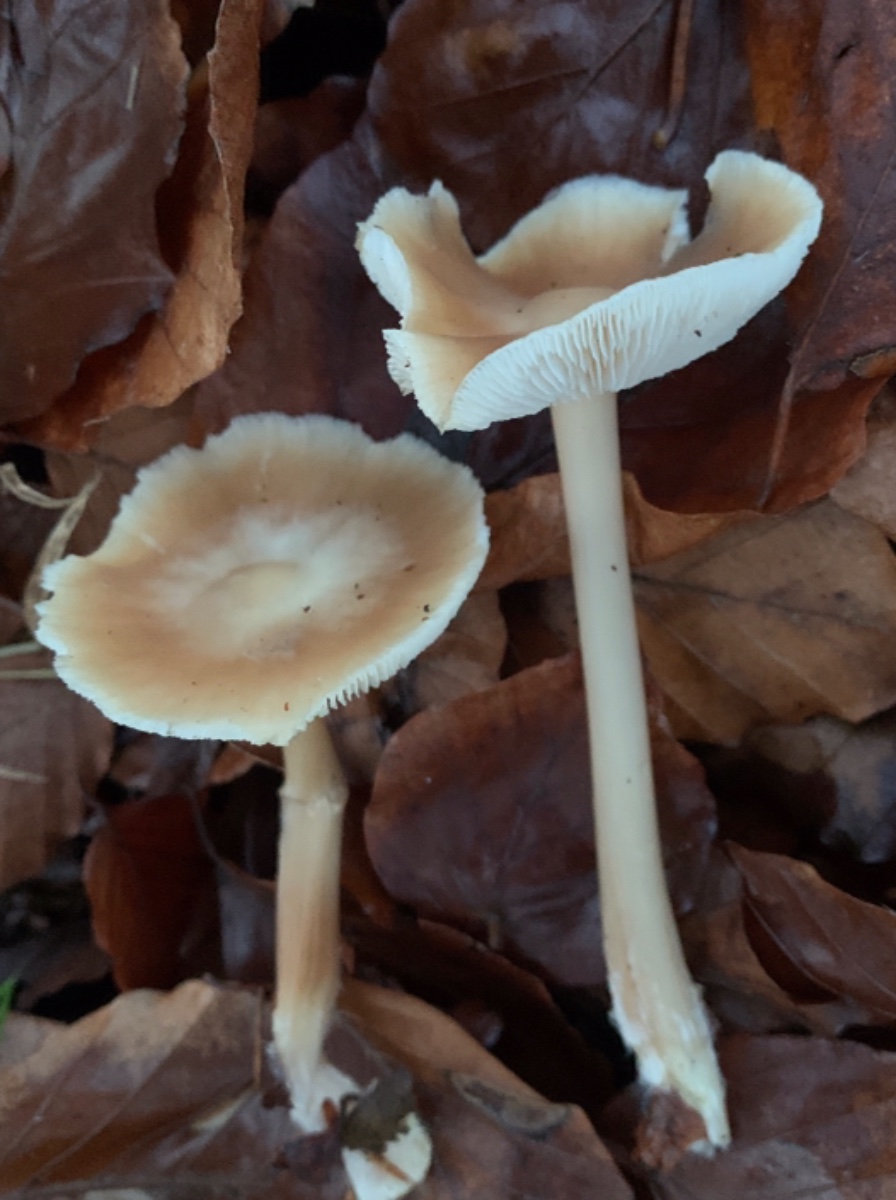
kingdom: Fungi
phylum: Basidiomycota
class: Agaricomycetes
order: Agaricales
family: Omphalotaceae
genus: Rhodocollybia
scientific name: Rhodocollybia asema
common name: horngrå fladhat
